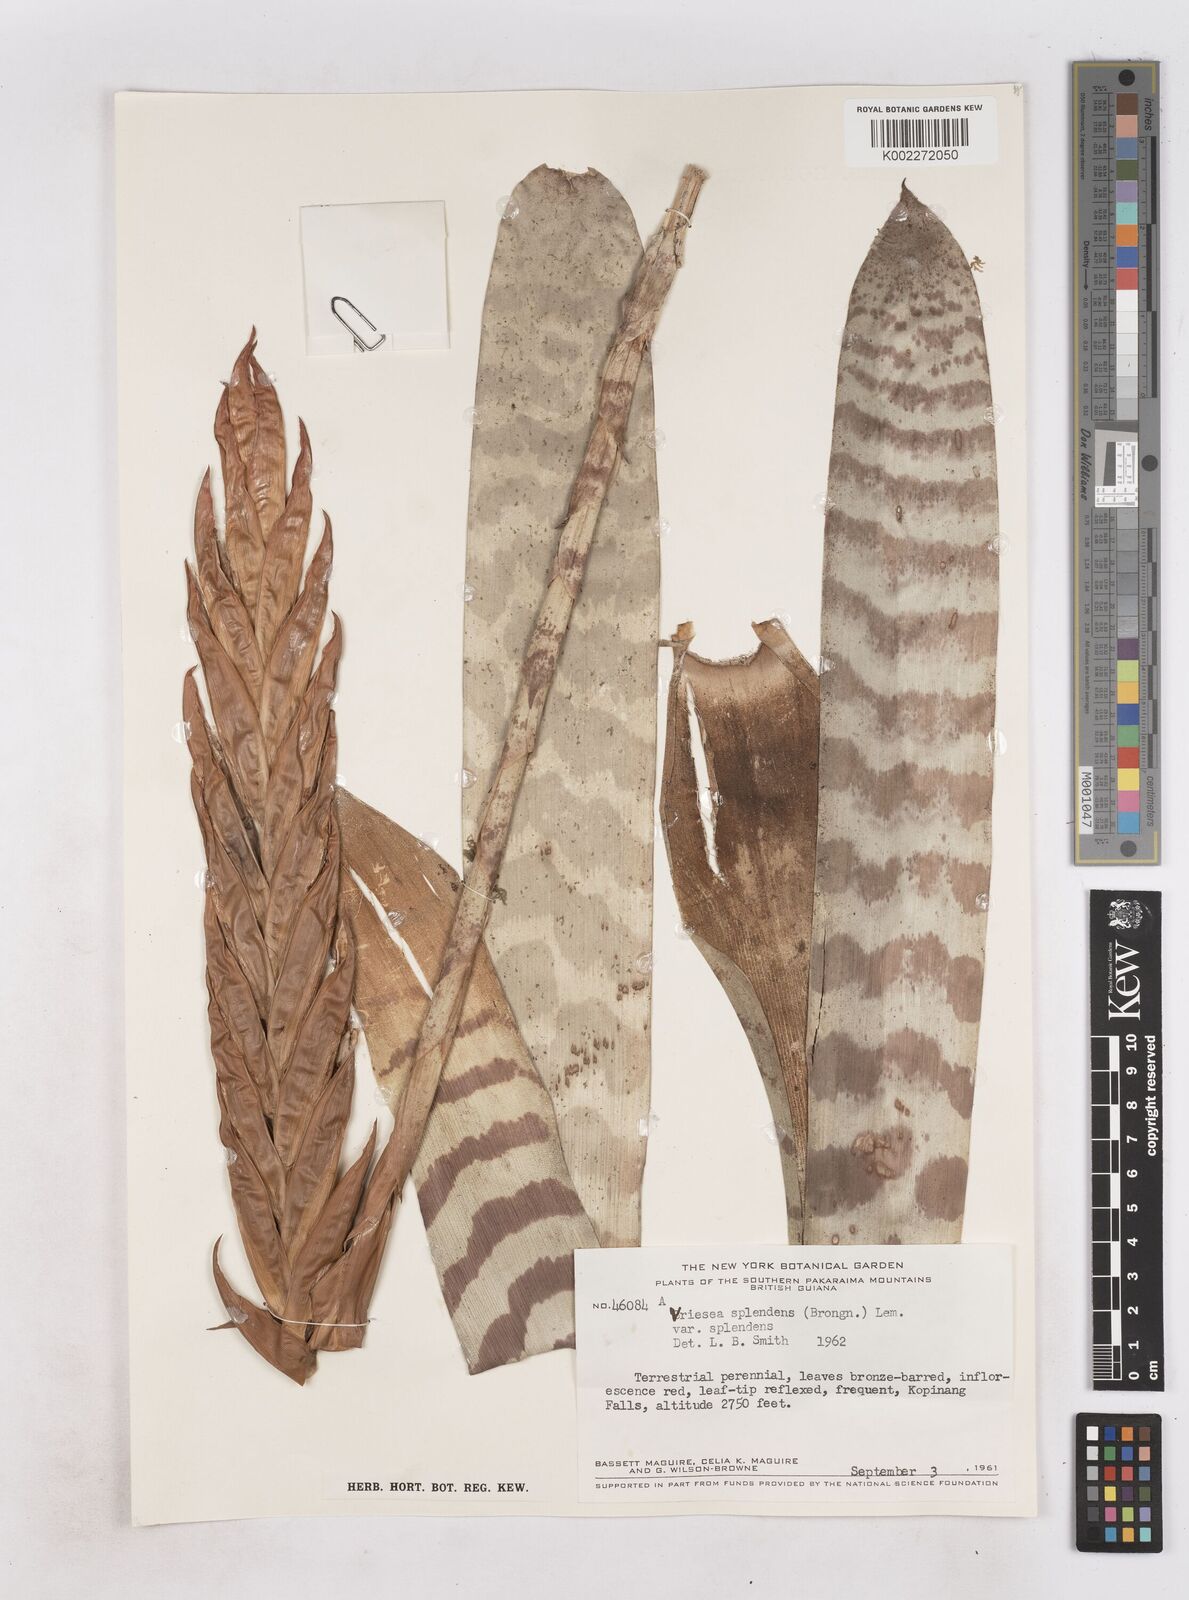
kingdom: Plantae
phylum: Tracheophyta
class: Liliopsida
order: Poales
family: Bromeliaceae
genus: Lutheria
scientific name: Lutheria splendens
